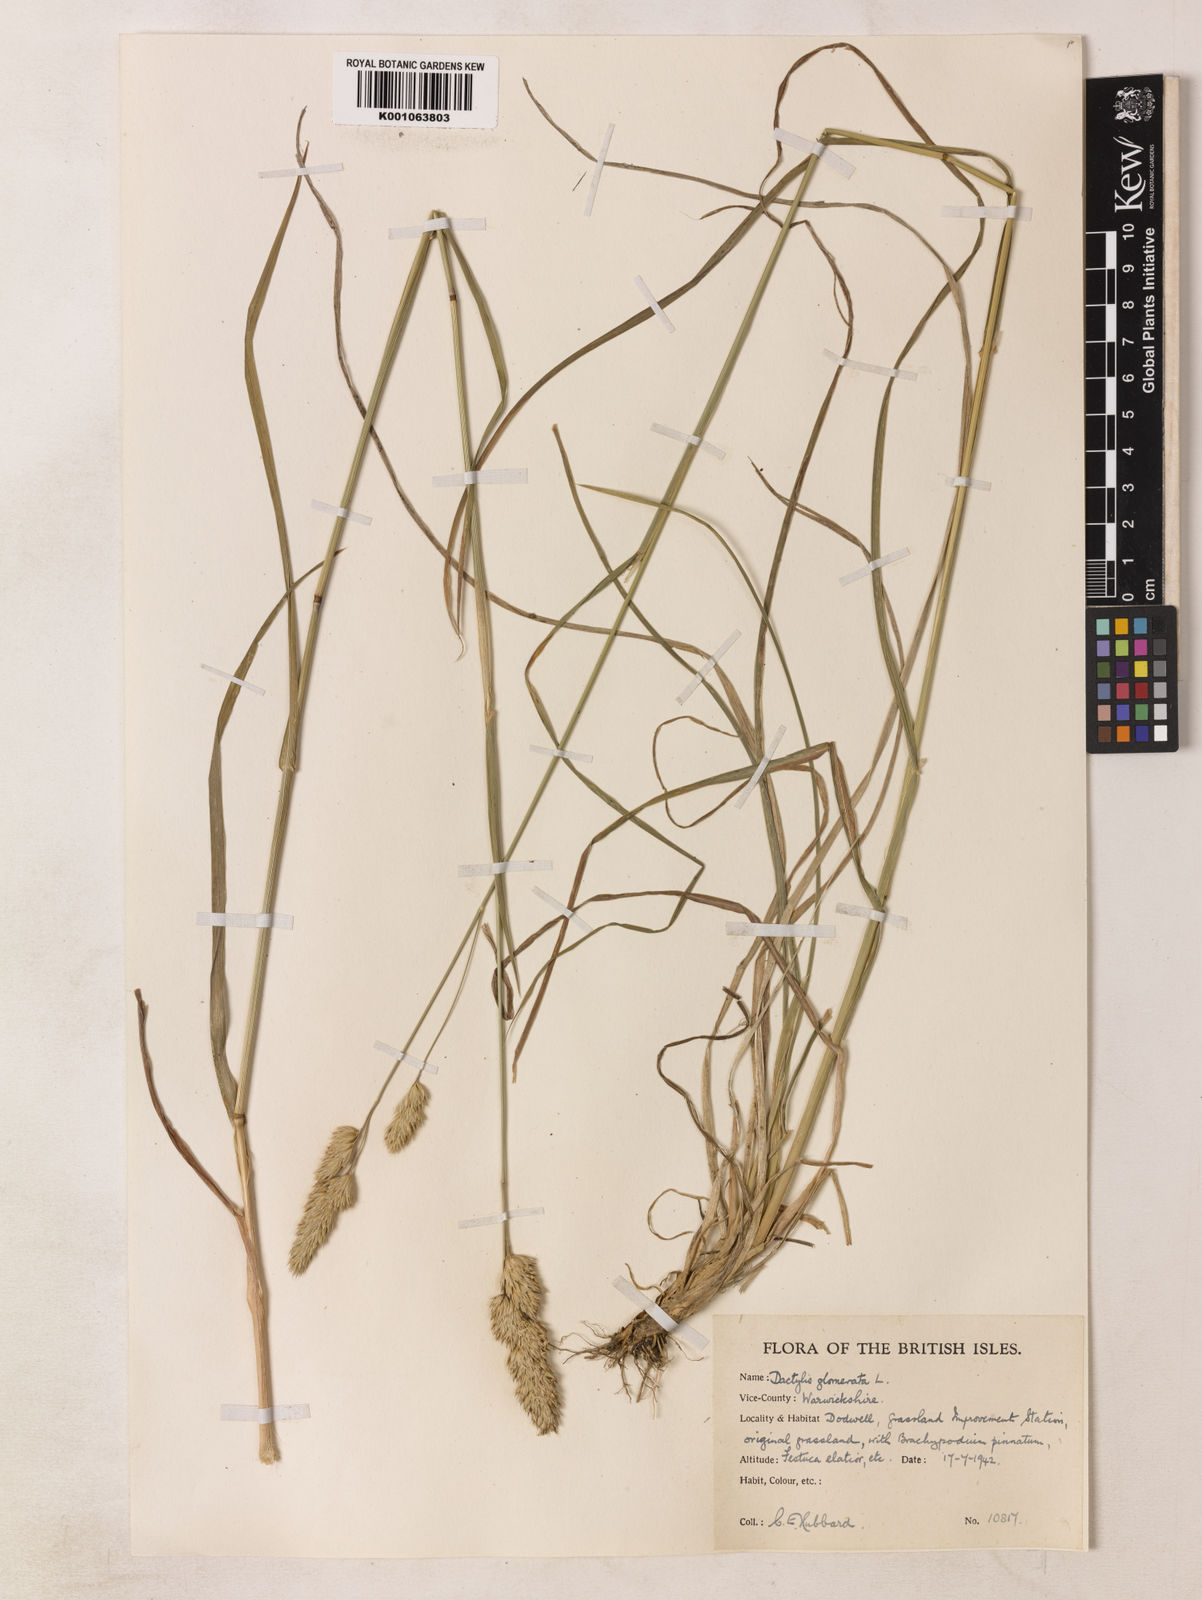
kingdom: Plantae
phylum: Tracheophyta
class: Liliopsida
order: Poales
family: Poaceae
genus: Dactylis
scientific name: Dactylis glomerata
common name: Orchardgrass
